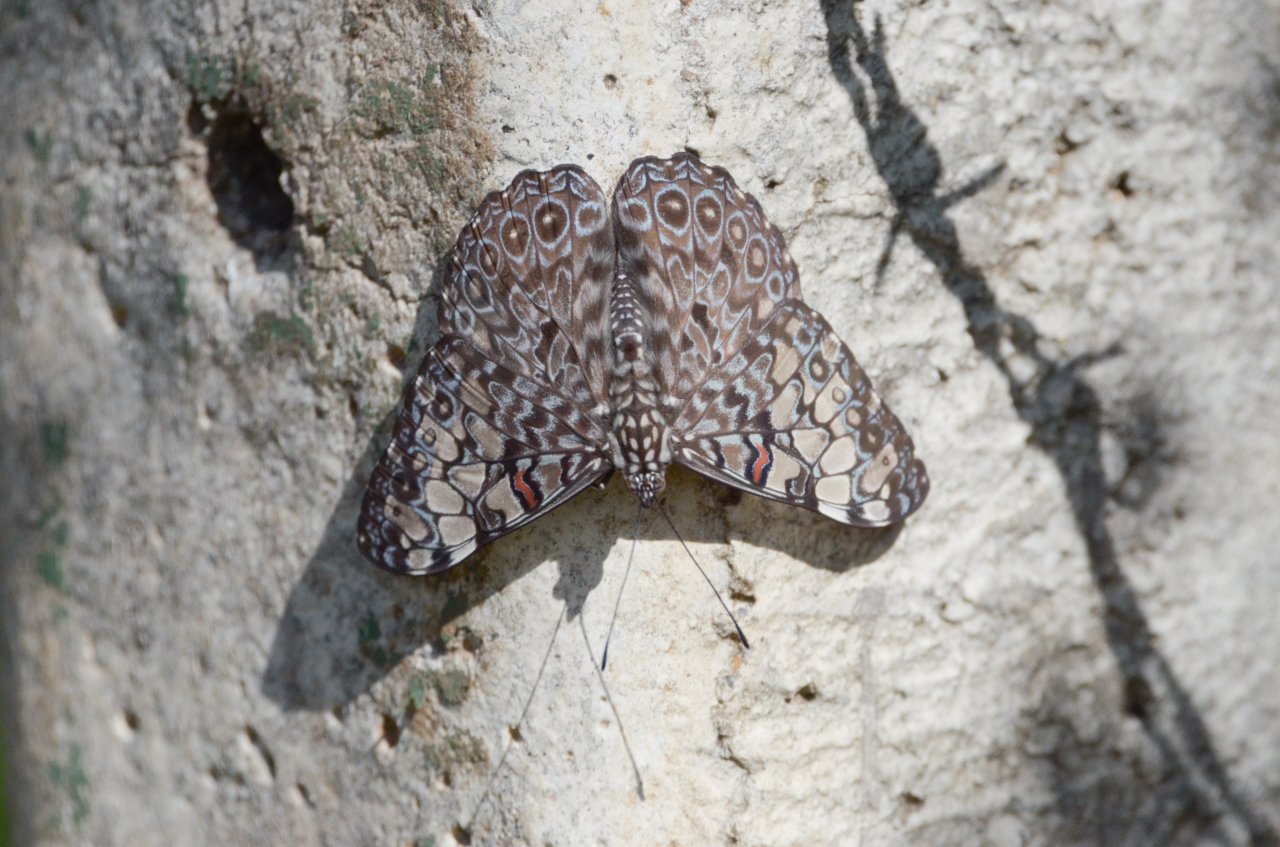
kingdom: Animalia
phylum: Arthropoda
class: Insecta
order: Lepidoptera
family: Nymphalidae
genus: Hamadryas
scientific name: Hamadryas feronia
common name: Variable Cracker
